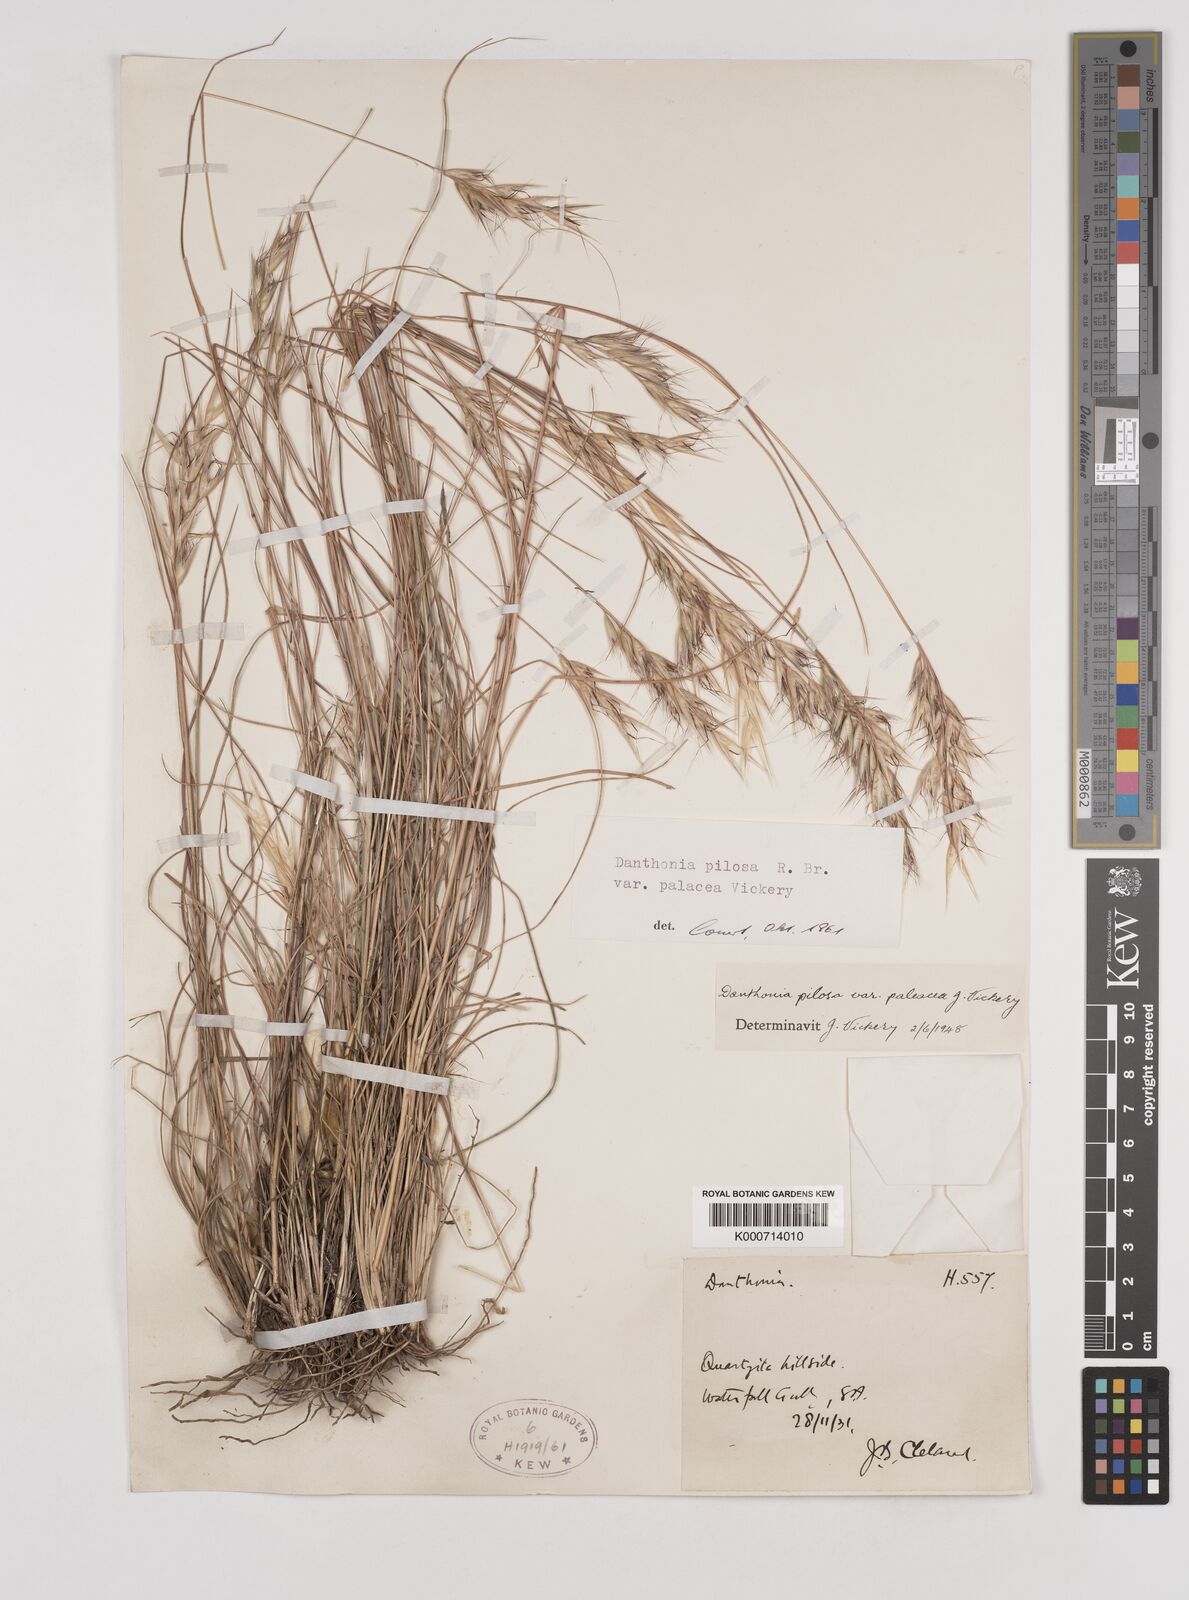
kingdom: Plantae
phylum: Tracheophyta
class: Liliopsida
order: Poales
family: Poaceae
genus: Rytidosperma
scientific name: Rytidosperma pilosum
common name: Hairy wallaby grass
